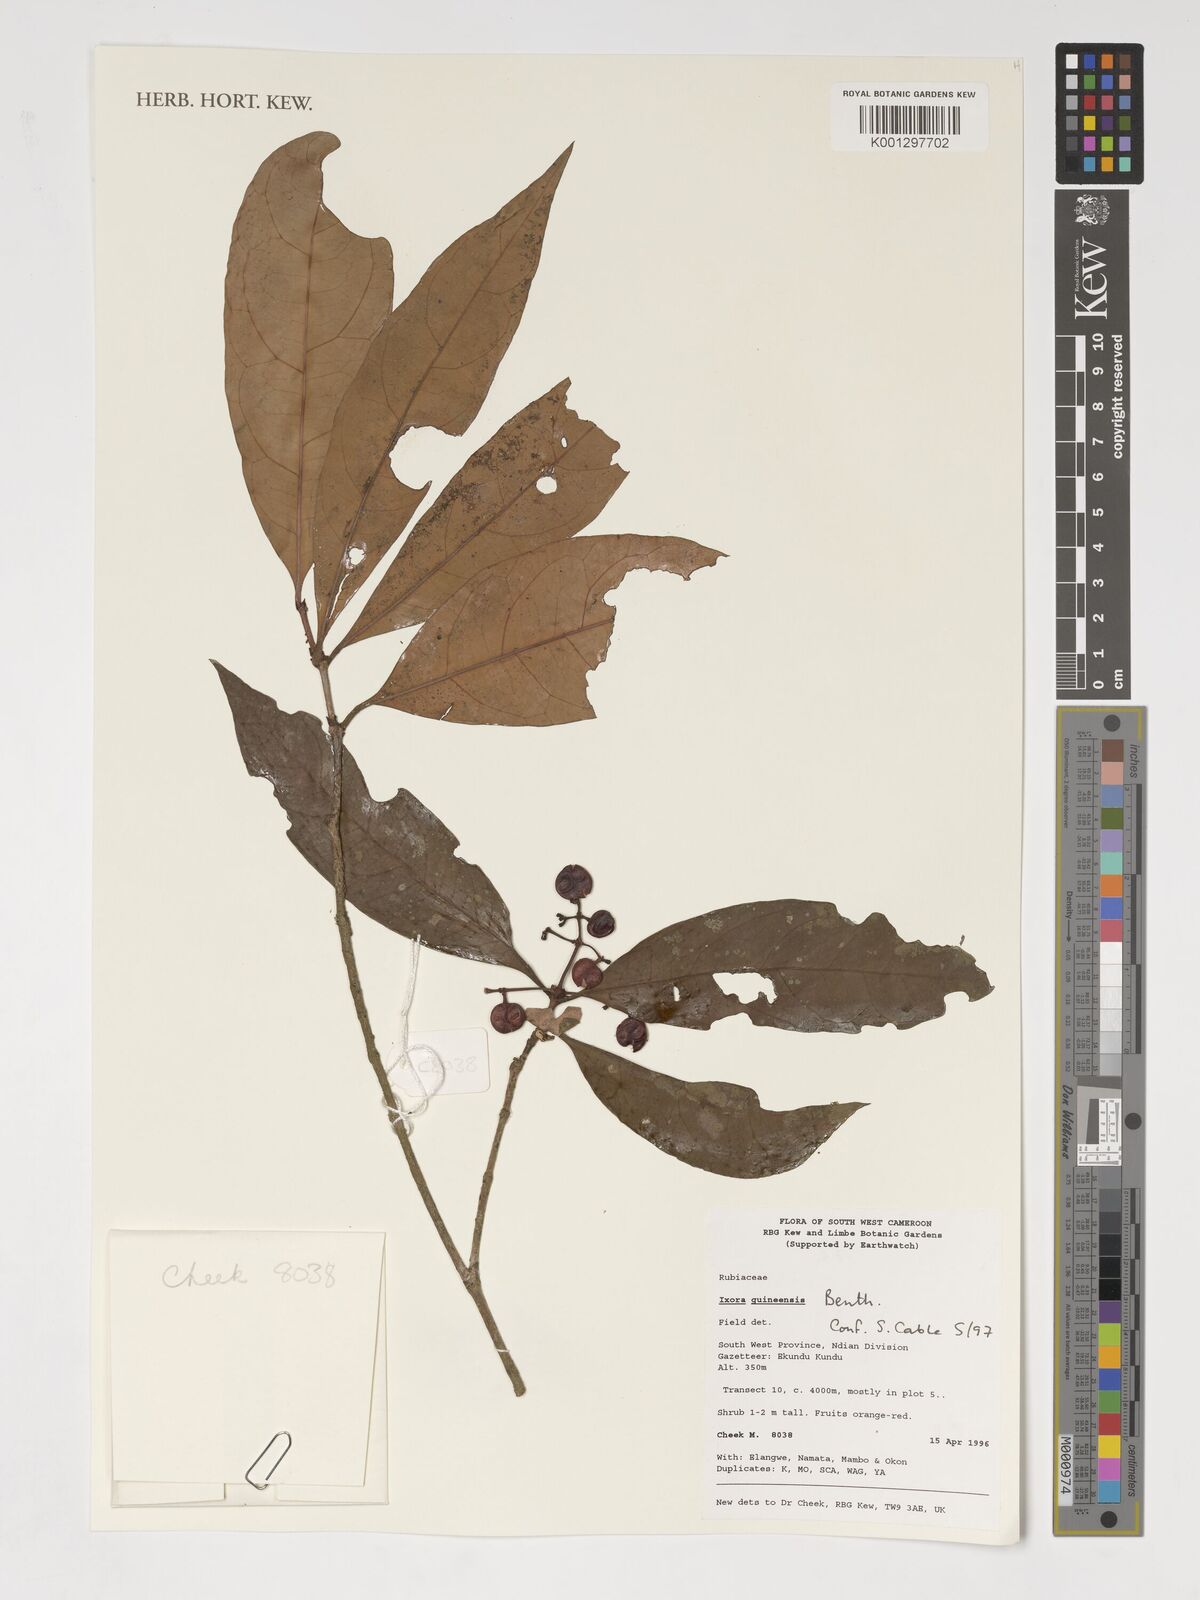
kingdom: Plantae
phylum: Tracheophyta
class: Magnoliopsida
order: Gentianales
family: Rubiaceae
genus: Ixora
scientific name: Ixora guineensis
